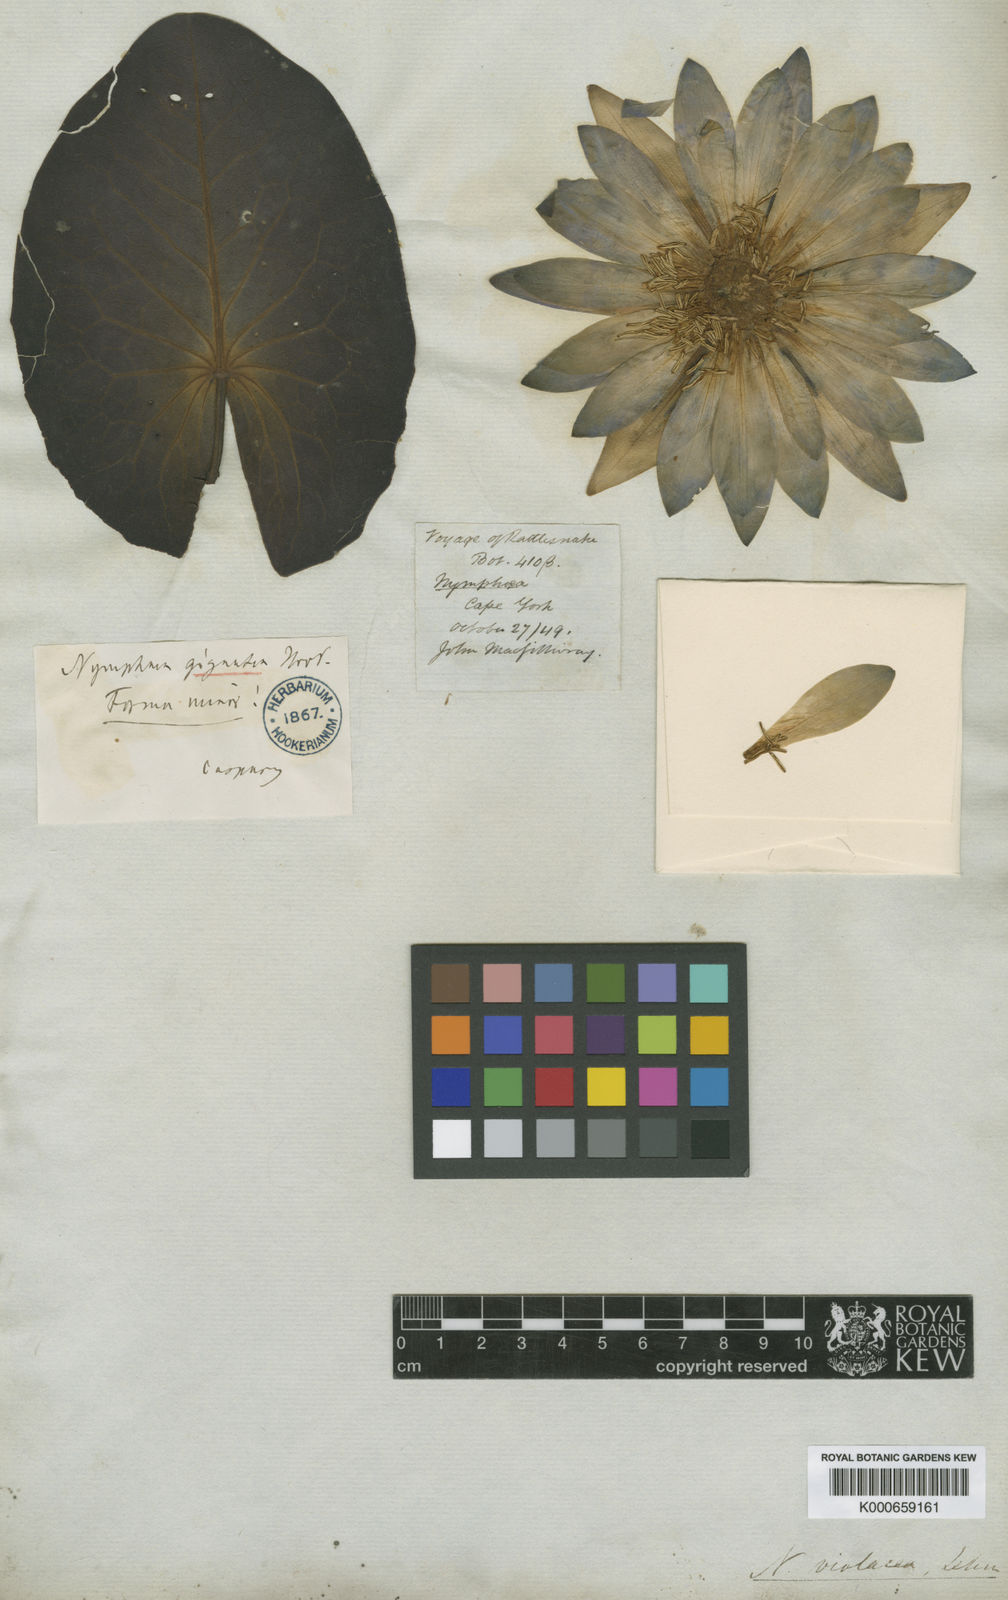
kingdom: Plantae
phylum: Tracheophyta
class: Magnoliopsida
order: Nymphaeales
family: Nymphaeaceae
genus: Nymphaea
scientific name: Nymphaea violacea
